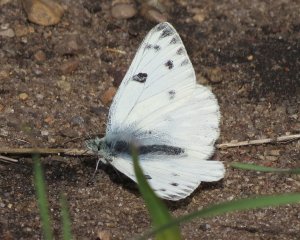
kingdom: Animalia
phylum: Arthropoda
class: Insecta
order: Lepidoptera
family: Pieridae
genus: Pontia
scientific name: Pontia protodice
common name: Checkered White
